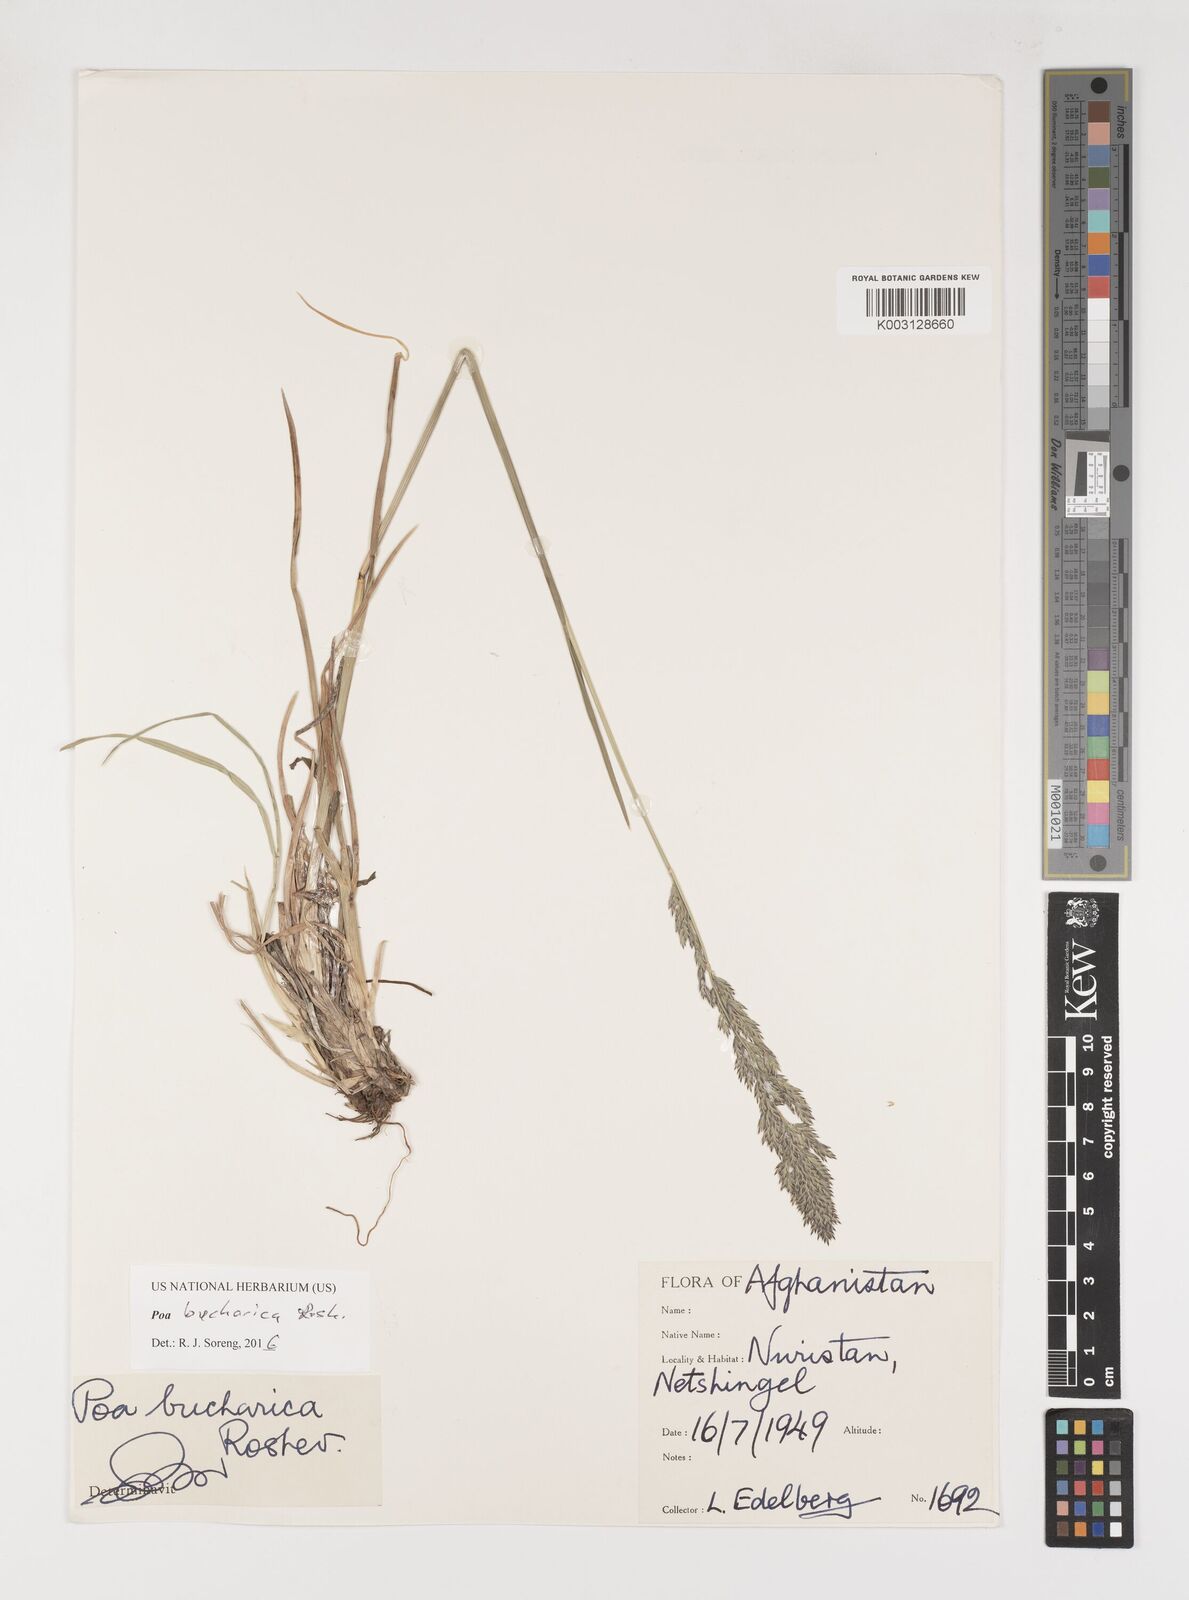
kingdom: Plantae
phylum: Tracheophyta
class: Liliopsida
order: Poales
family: Poaceae
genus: Poa
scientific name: Poa bucharica
